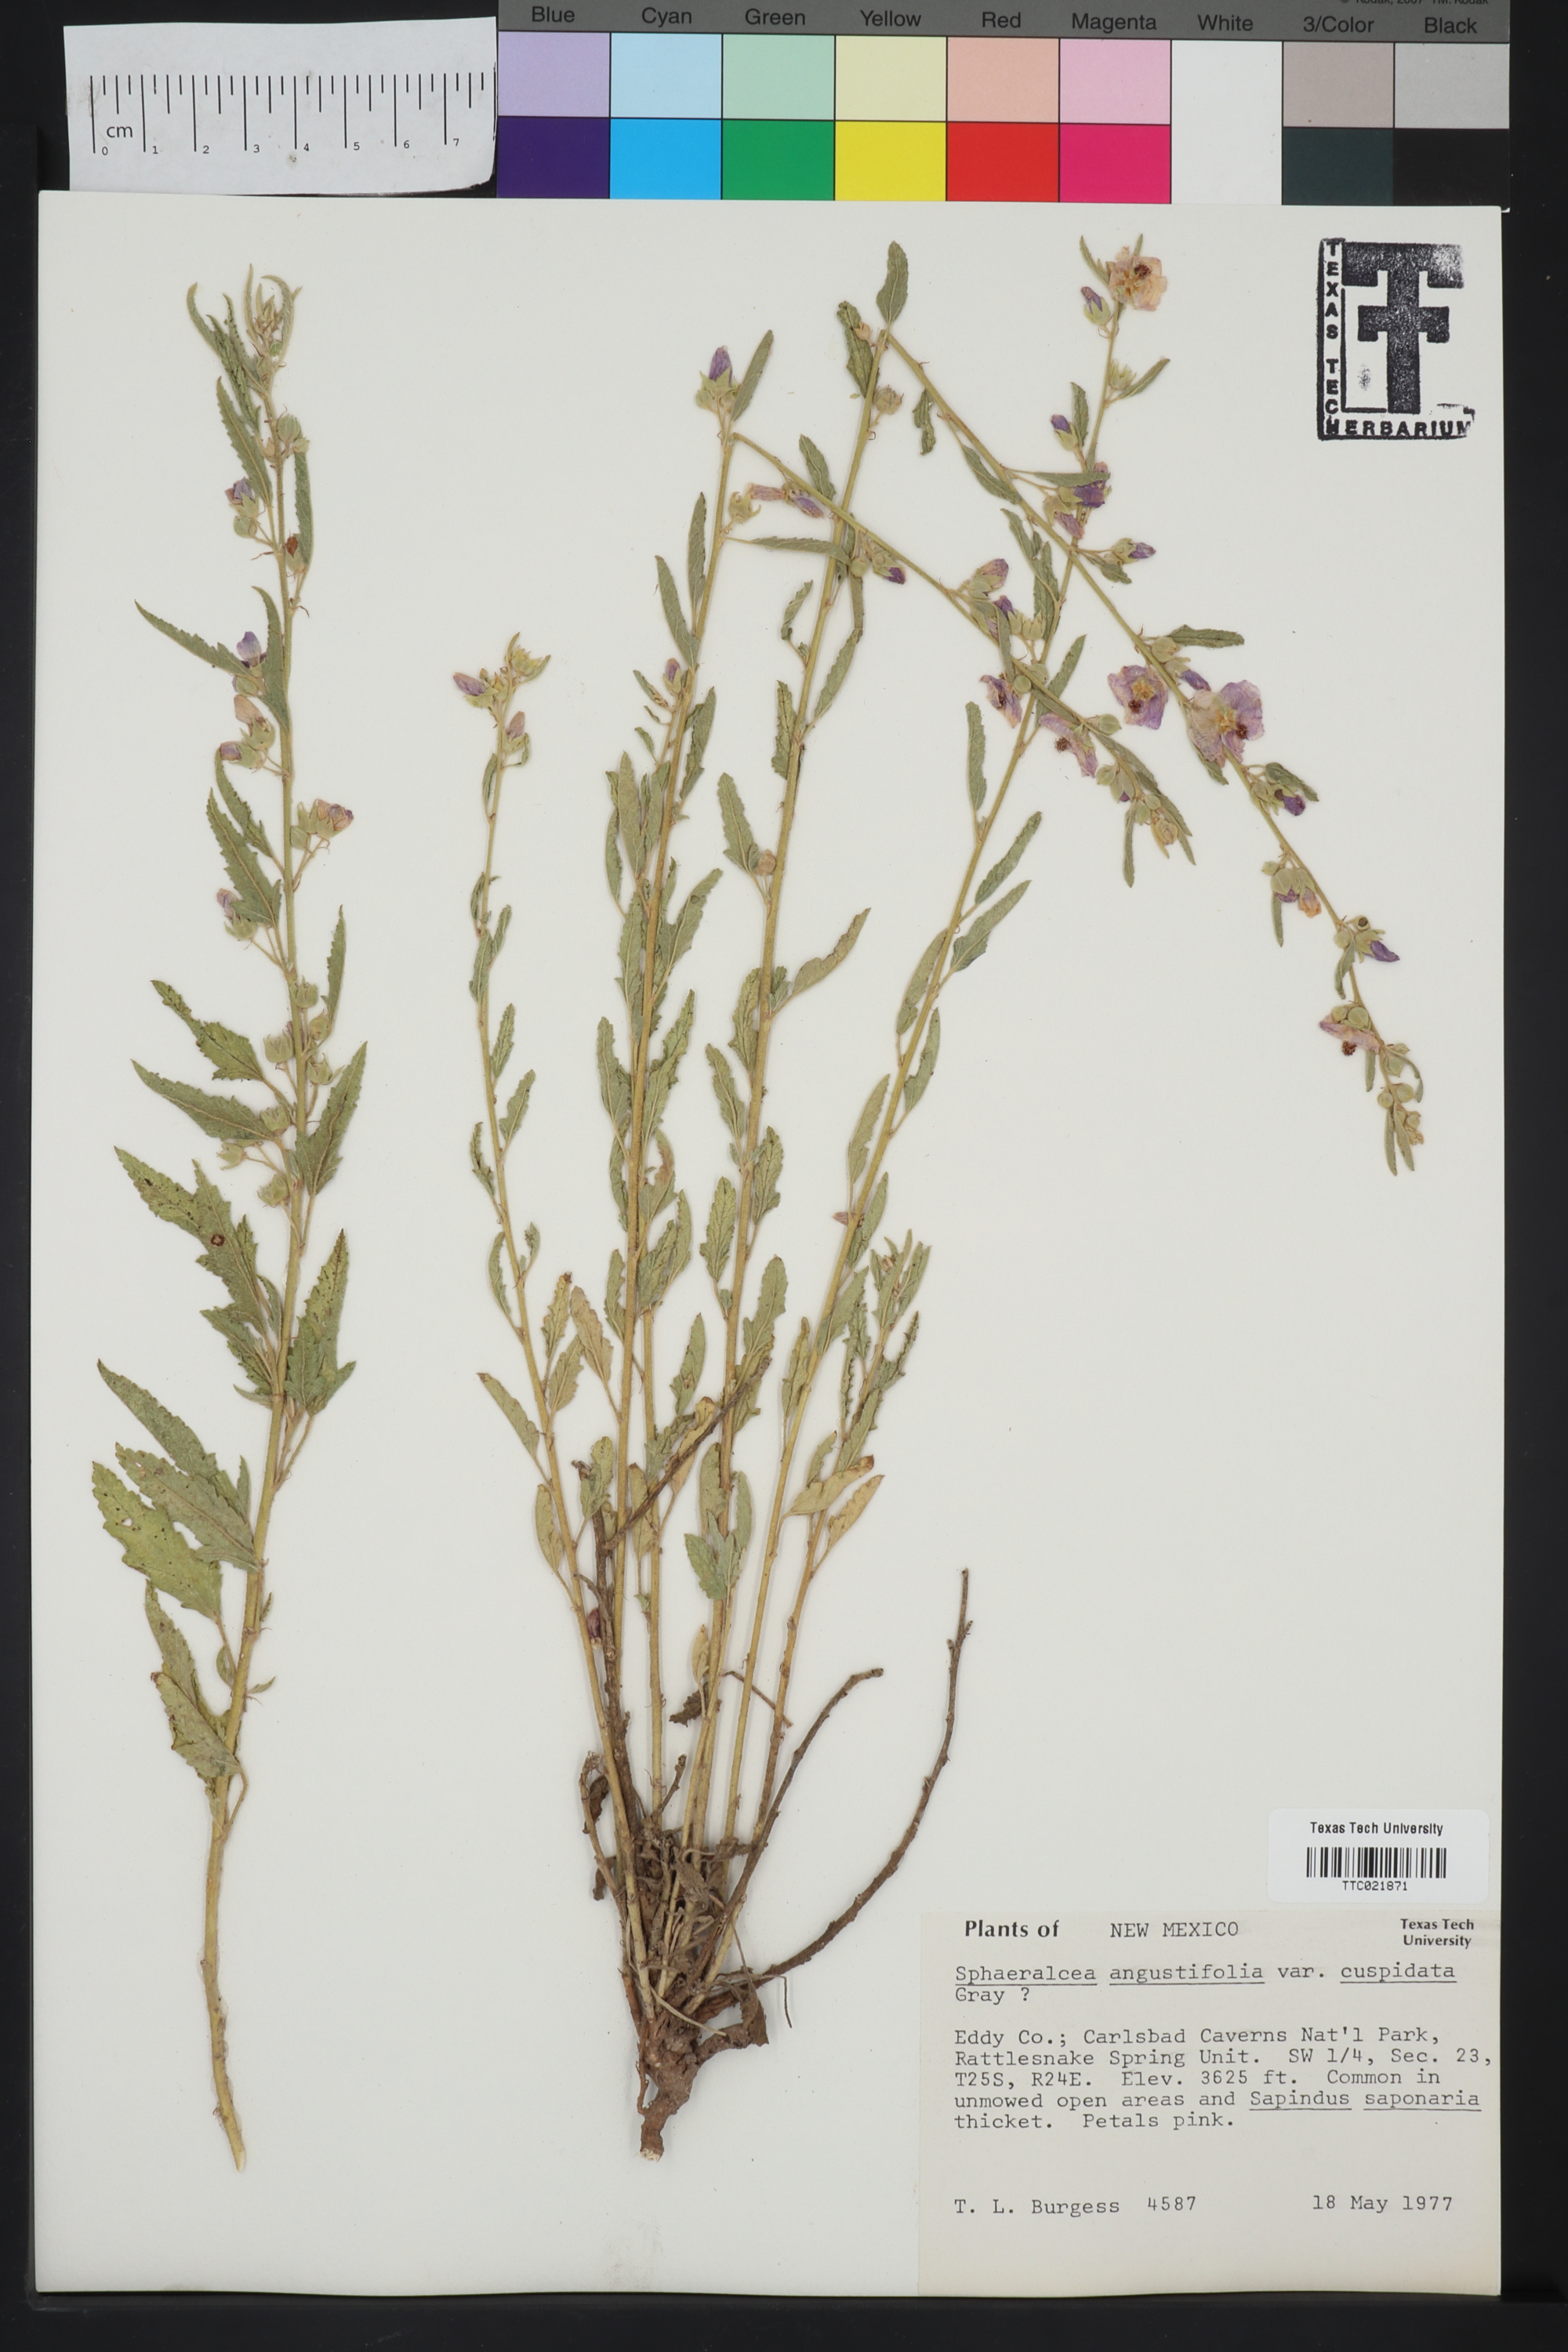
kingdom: Plantae
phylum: Tracheophyta
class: Magnoliopsida
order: Malvales
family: Malvaceae
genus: Sphaeralcea
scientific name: Sphaeralcea angustifolia
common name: Copper globe-mallow
